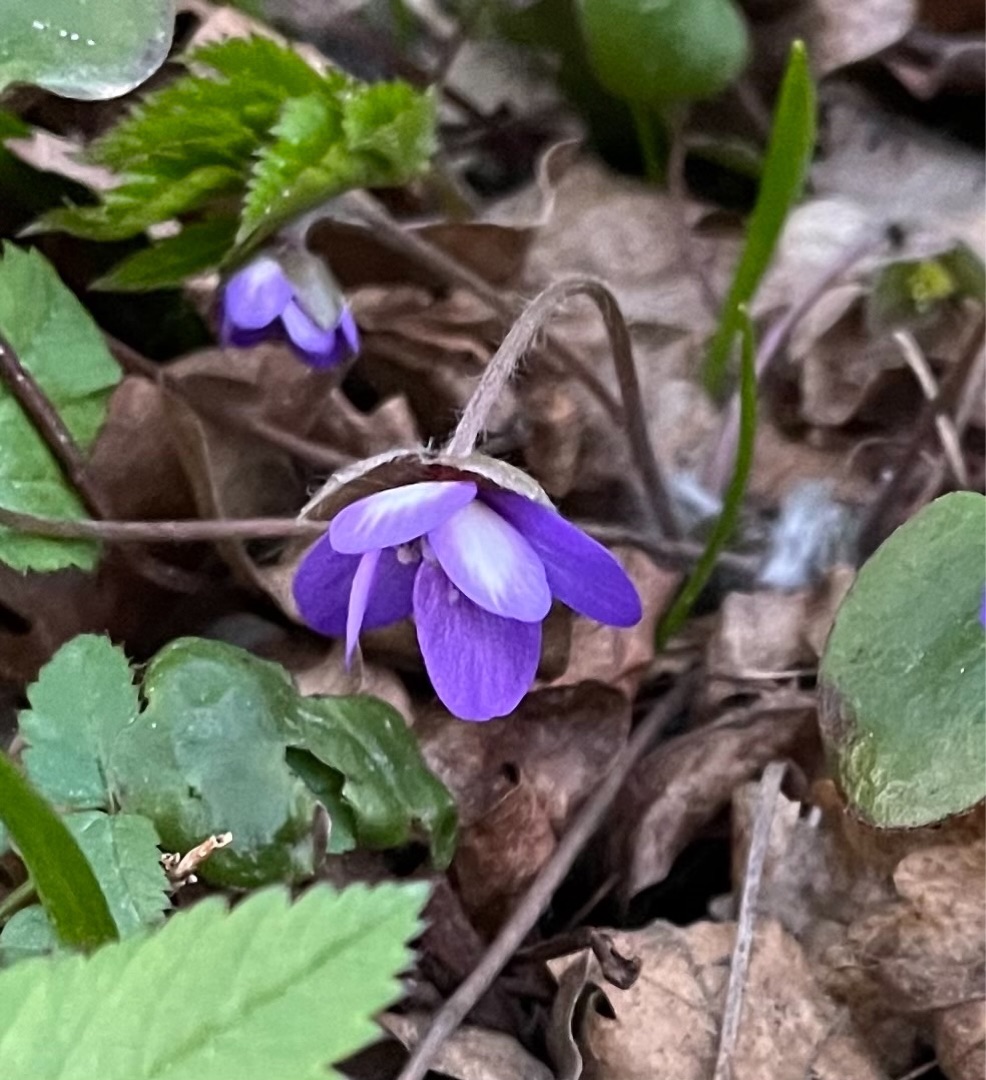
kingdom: Plantae
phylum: Tracheophyta
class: Magnoliopsida
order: Ranunculales
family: Ranunculaceae
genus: Hepatica
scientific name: Hepatica nobilis
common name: Blå anemone
